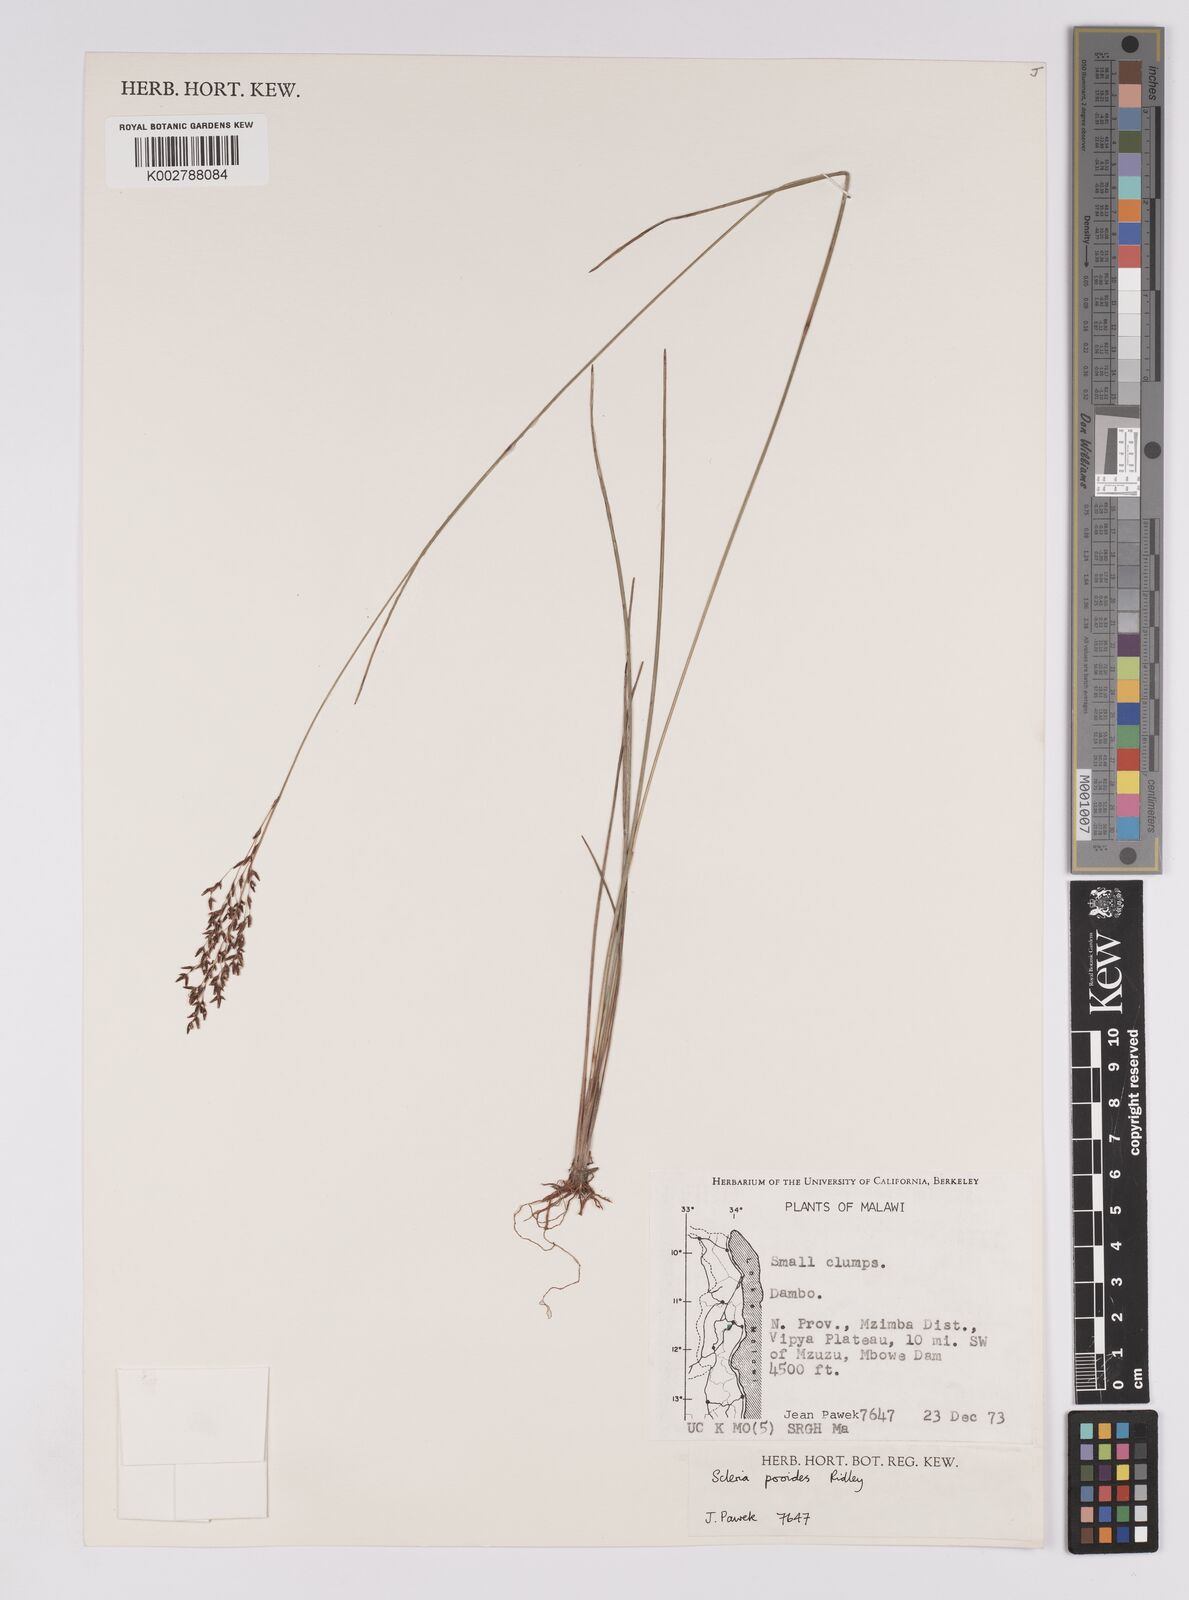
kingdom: Plantae
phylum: Tracheophyta
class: Liliopsida
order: Poales
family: Cyperaceae
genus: Scleria
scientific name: Scleria pooides
